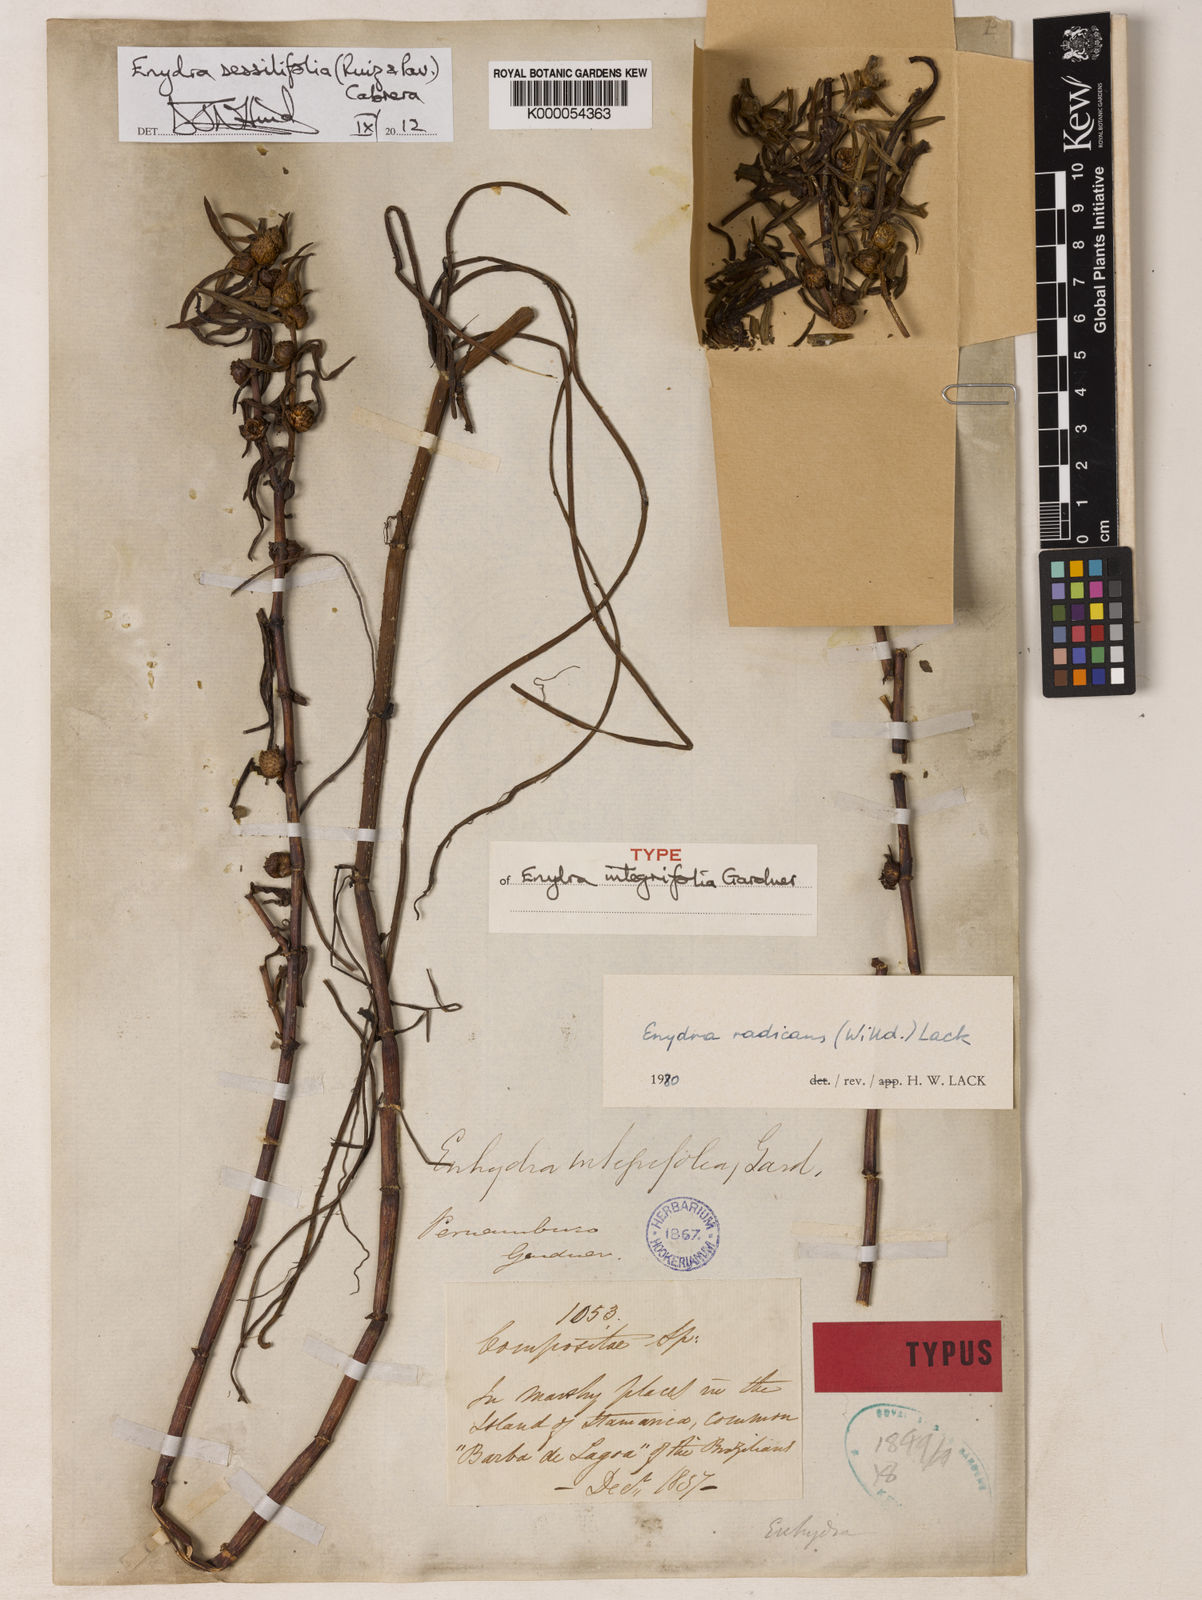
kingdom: Plantae
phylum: Tracheophyta
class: Magnoliopsida
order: Asterales
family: Asteraceae
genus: Enydra
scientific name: Enydra sessilifolia
